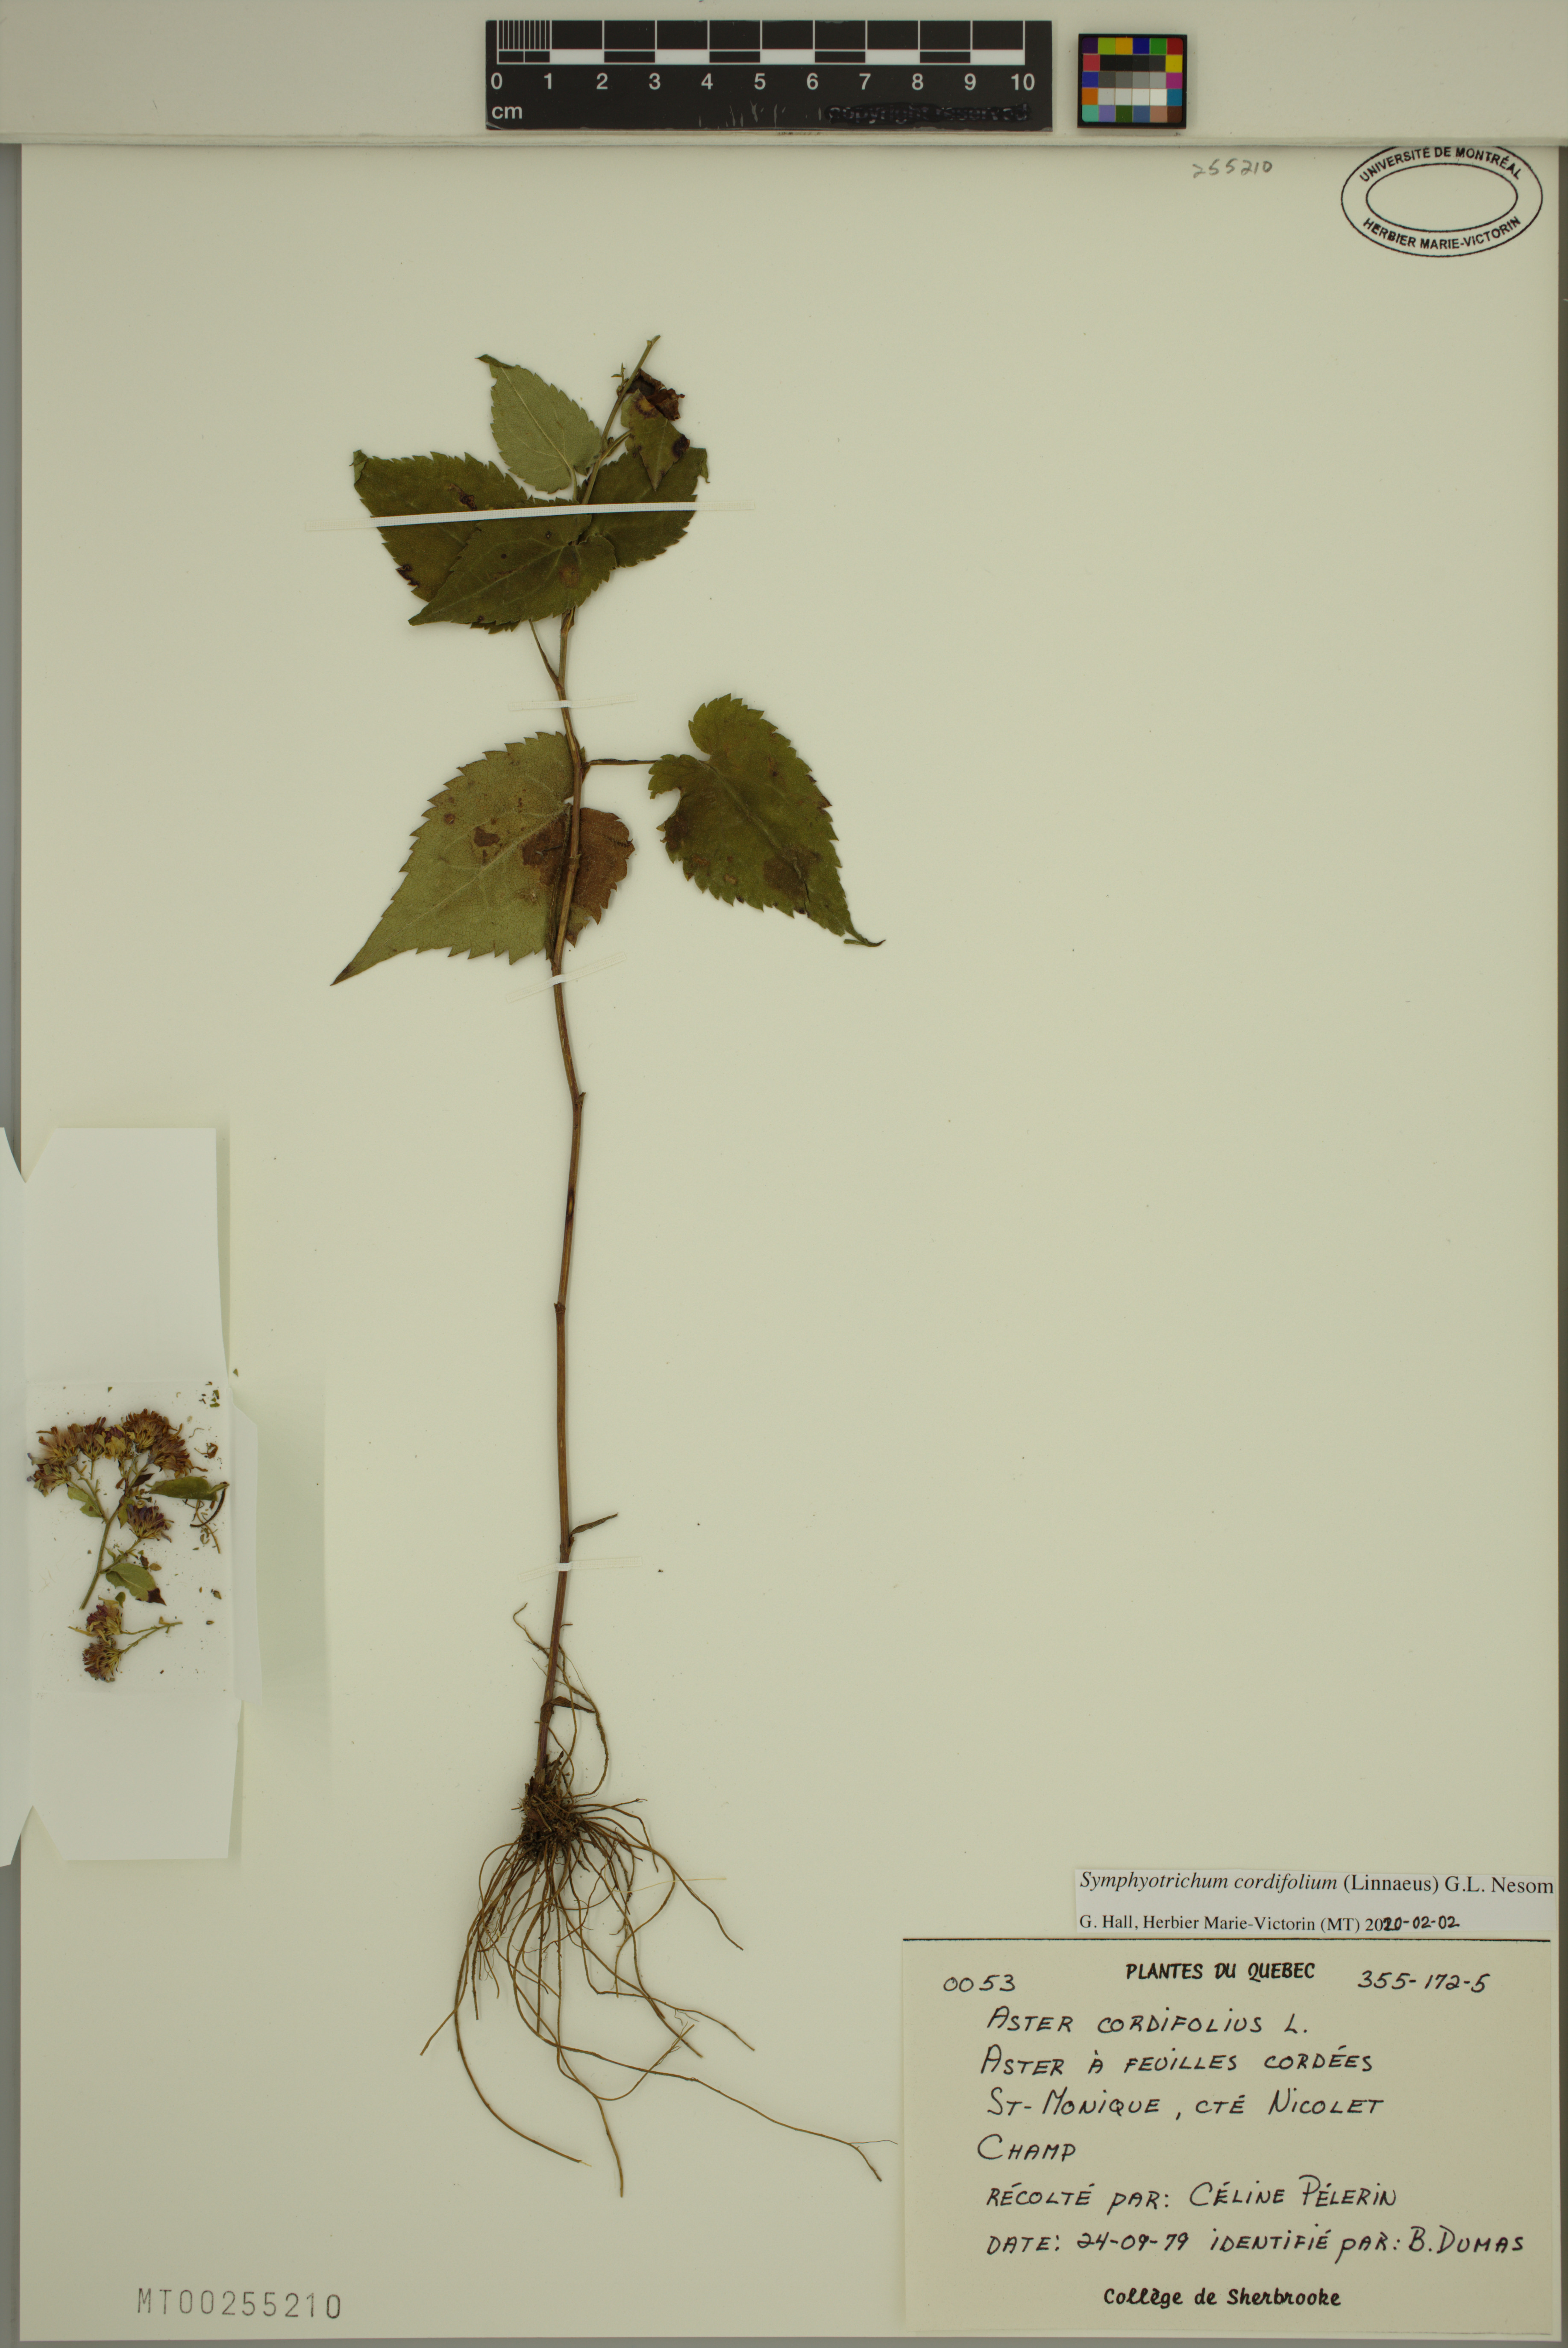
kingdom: Plantae
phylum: Tracheophyta
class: Magnoliopsida
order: Asterales
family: Asteraceae
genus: Symphyotrichum
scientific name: Symphyotrichum cordifolium
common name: Beeweed
